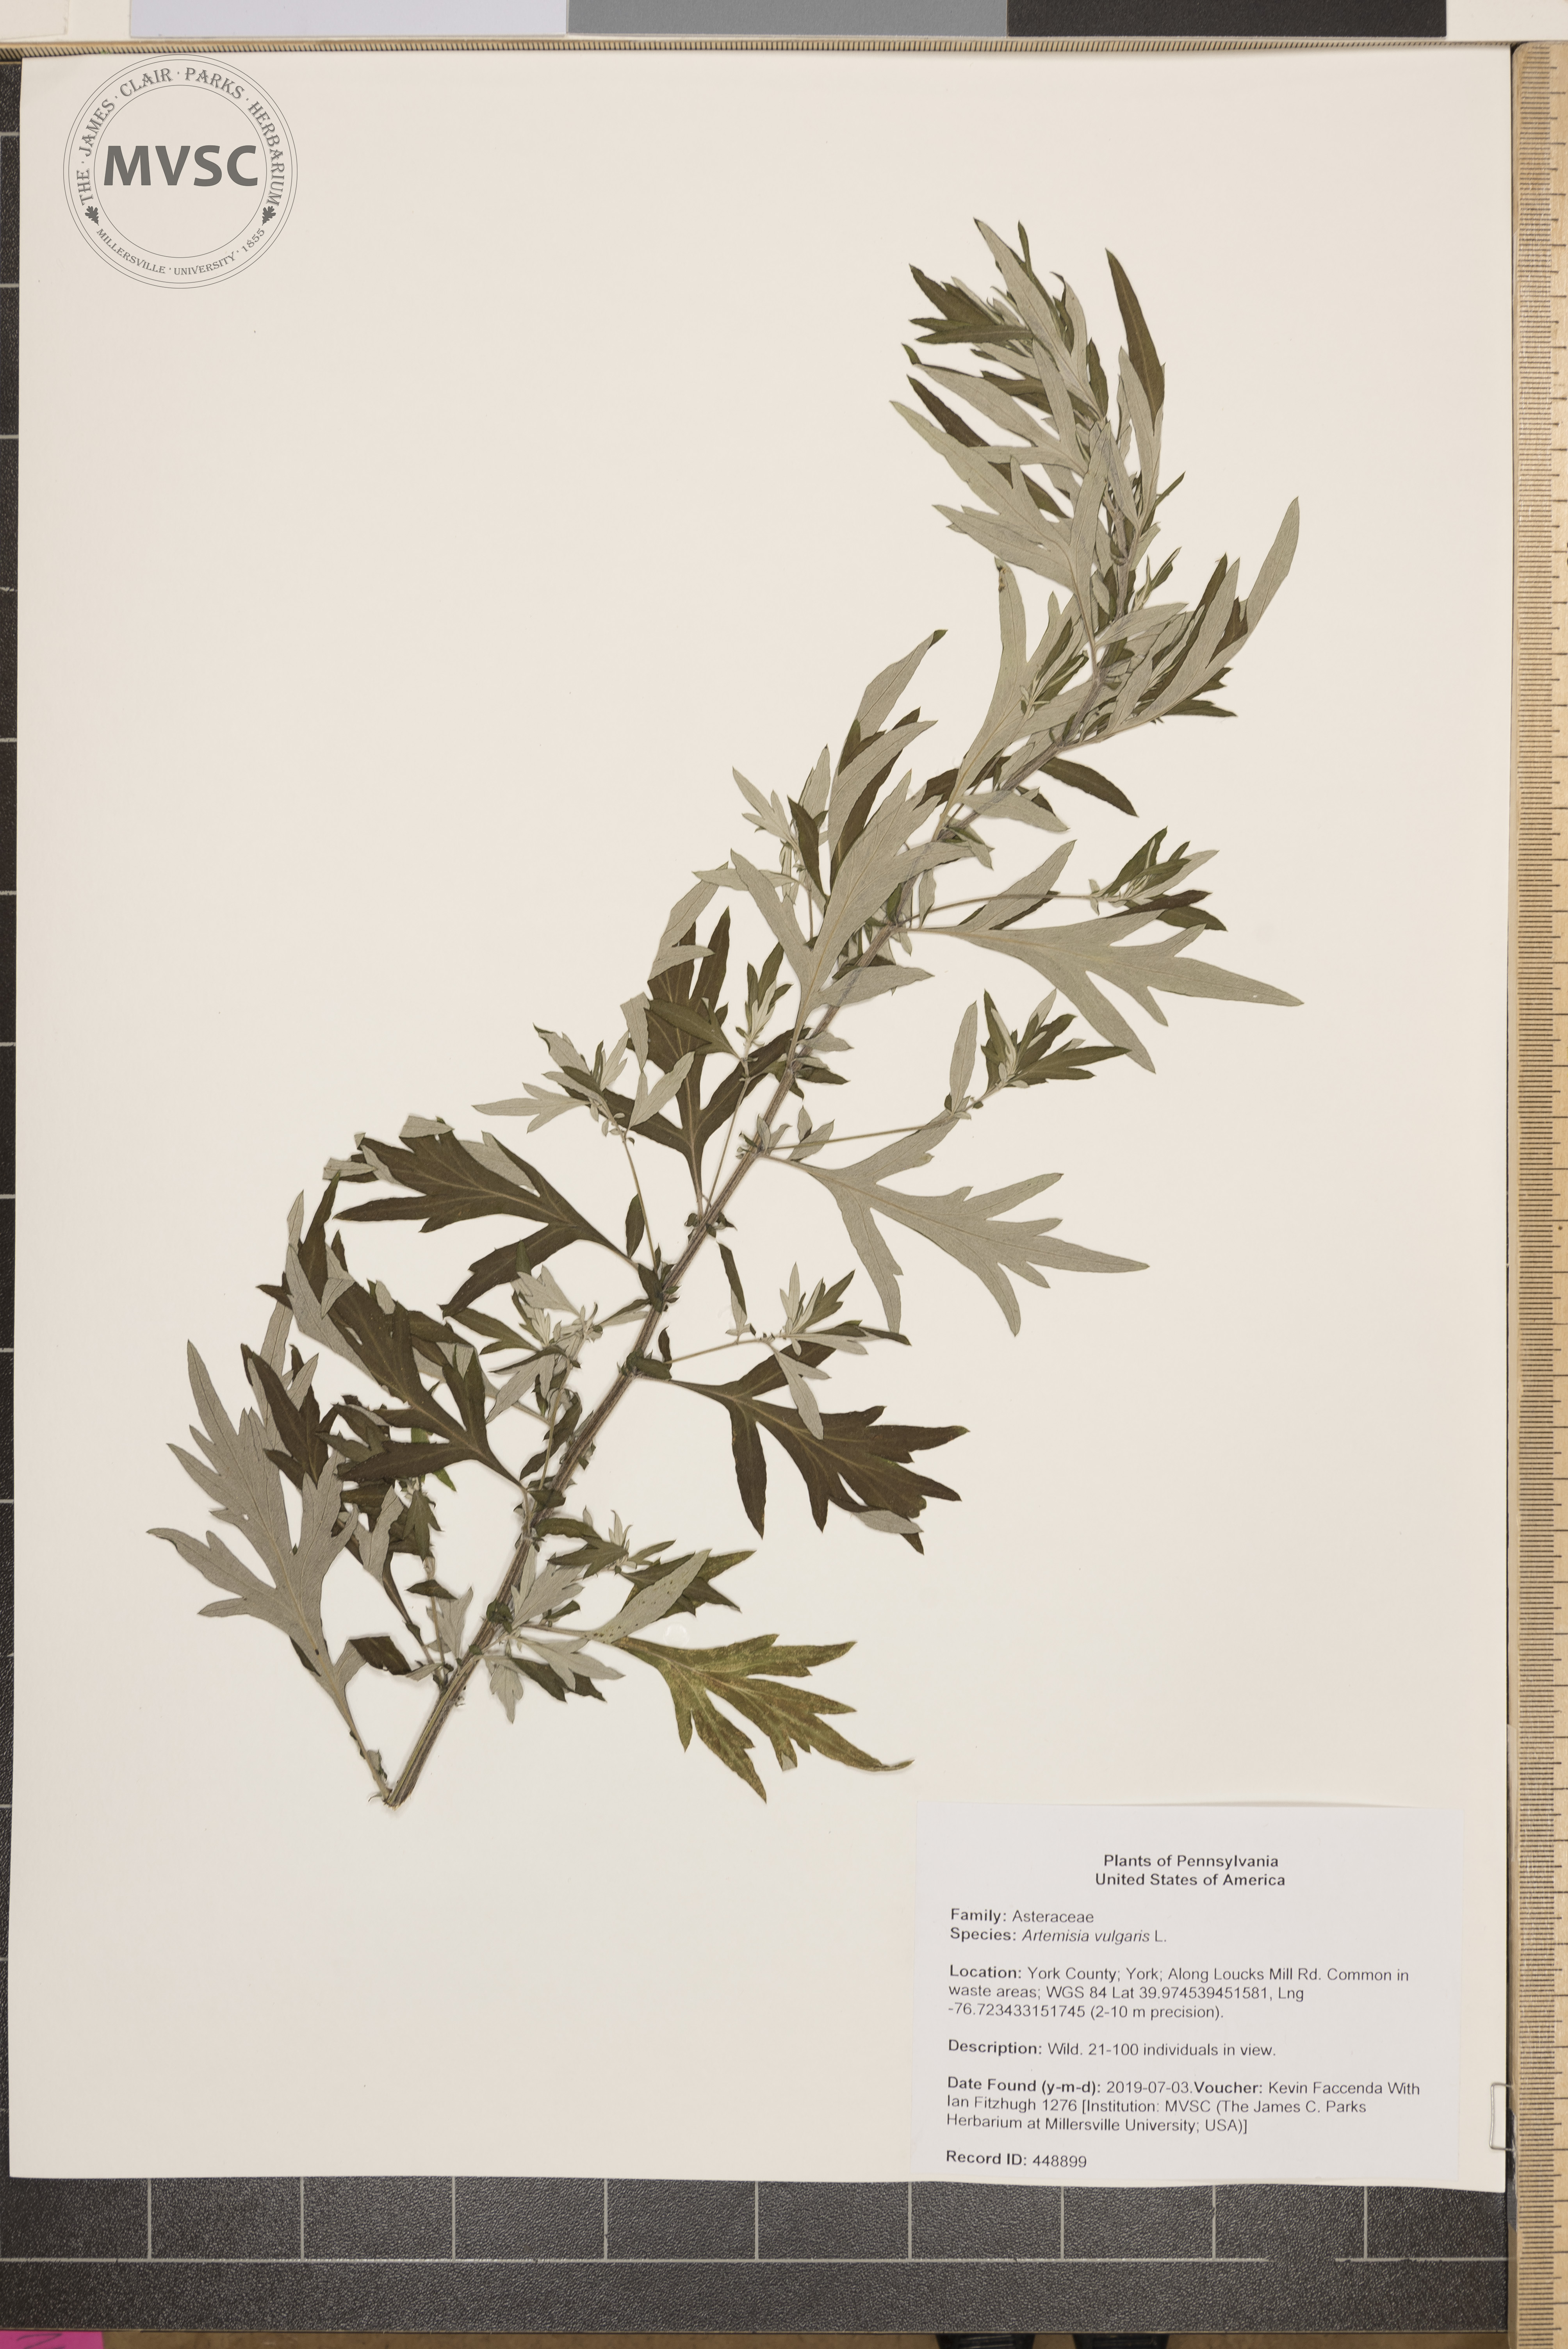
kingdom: Plantae
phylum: Tracheophyta
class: Magnoliopsida
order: Asterales
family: Asteraceae
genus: Artemisia
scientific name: Artemisia vulgaris
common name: Mugwort
